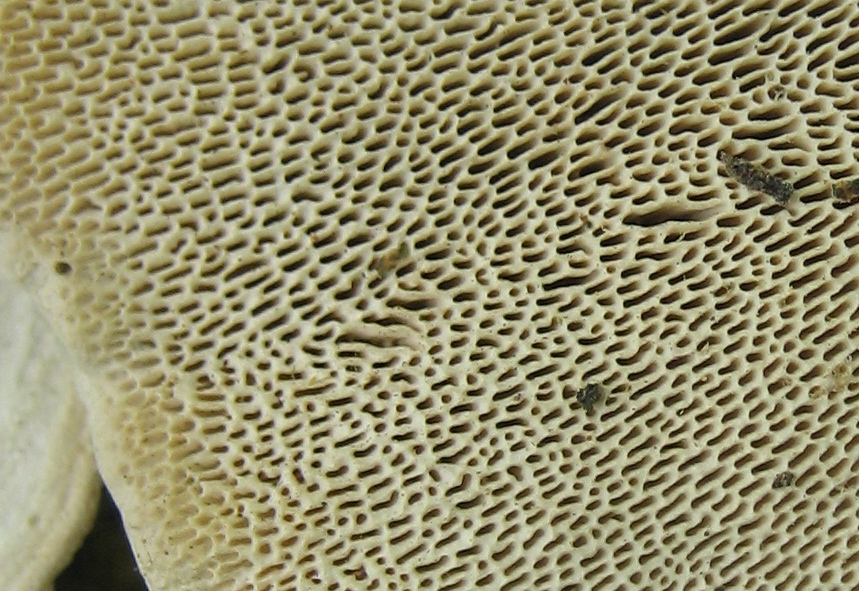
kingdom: Fungi
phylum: Basidiomycota
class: Agaricomycetes
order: Polyporales
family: Polyporaceae
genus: Trametes
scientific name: Trametes gibbosa
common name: puklet læderporesvamp
